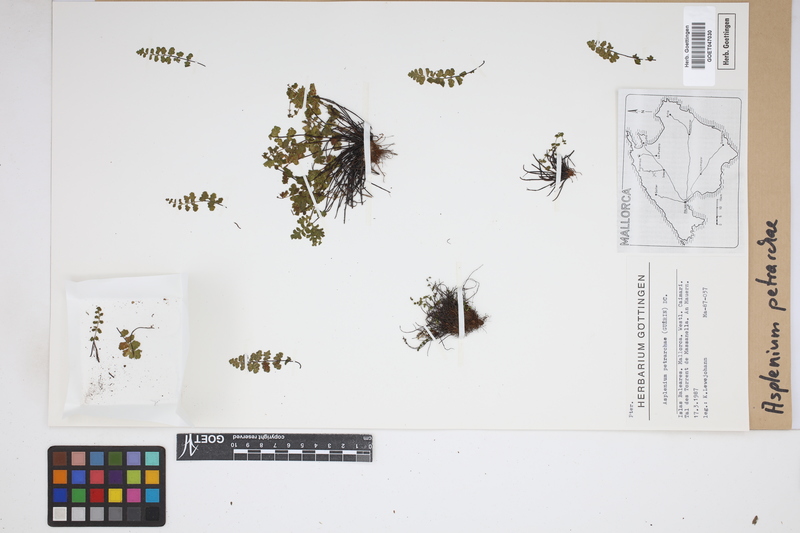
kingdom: Plantae
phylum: Tracheophyta
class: Polypodiopsida
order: Polypodiales
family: Aspleniaceae
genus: Asplenium
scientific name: Asplenium petrarchae
